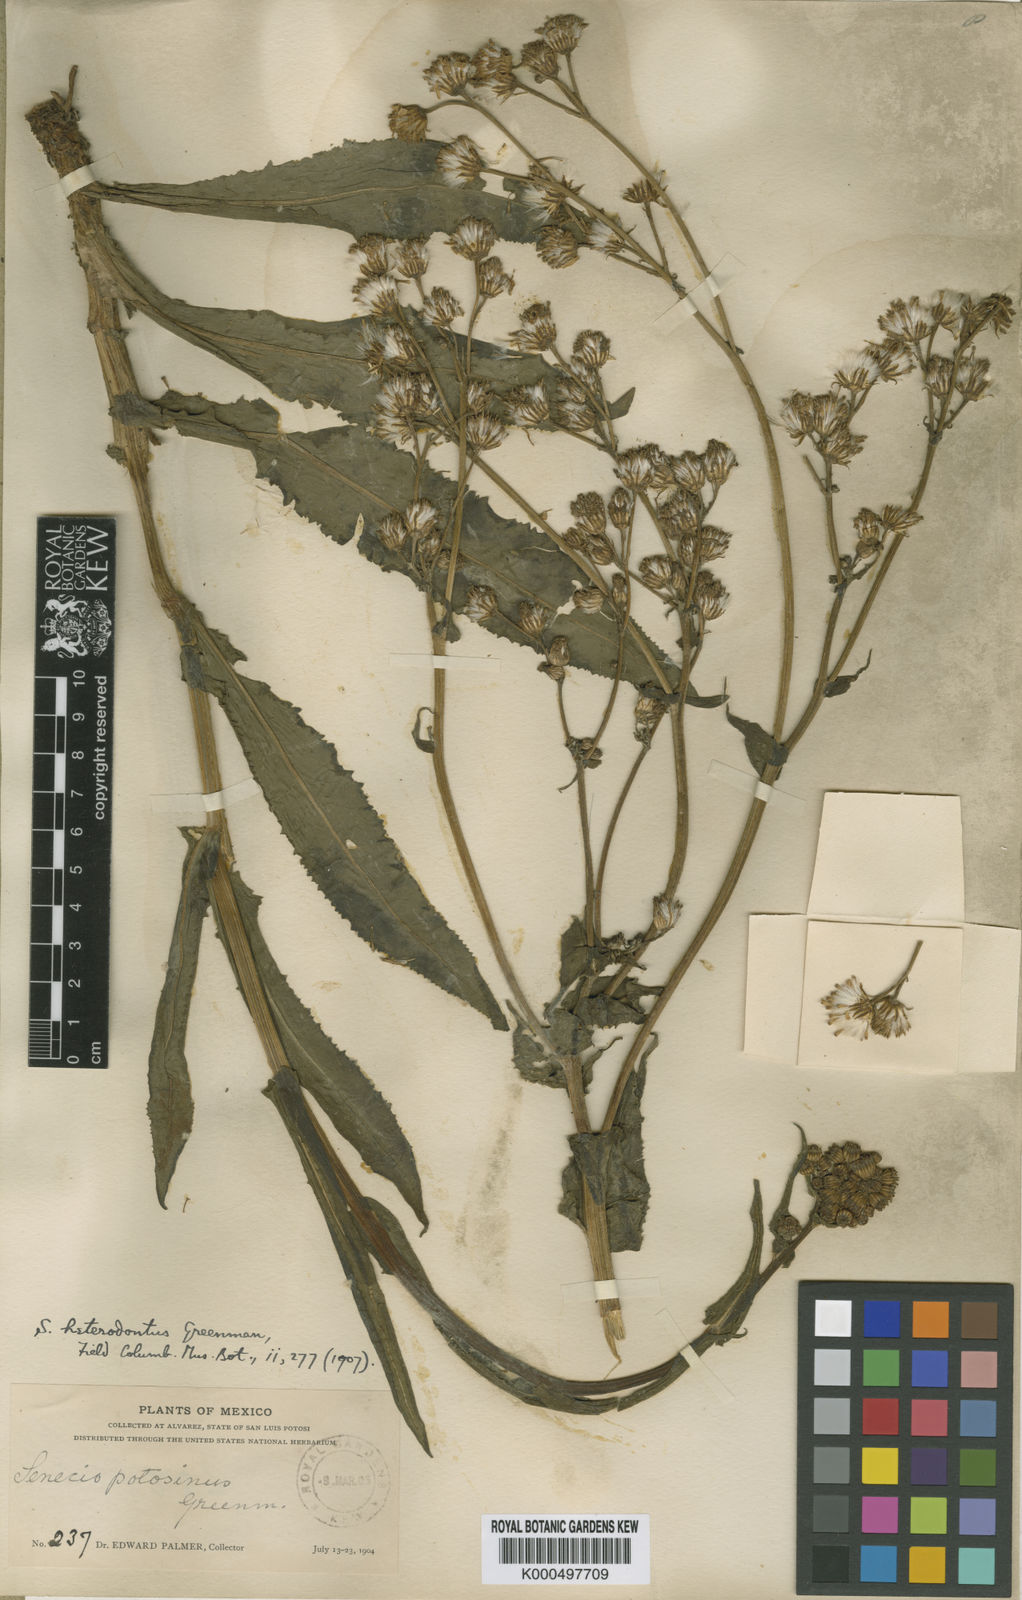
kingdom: Plantae
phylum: Tracheophyta
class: Magnoliopsida
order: Asterales
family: Asteraceae
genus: Senecio
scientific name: Senecio heterodontus
